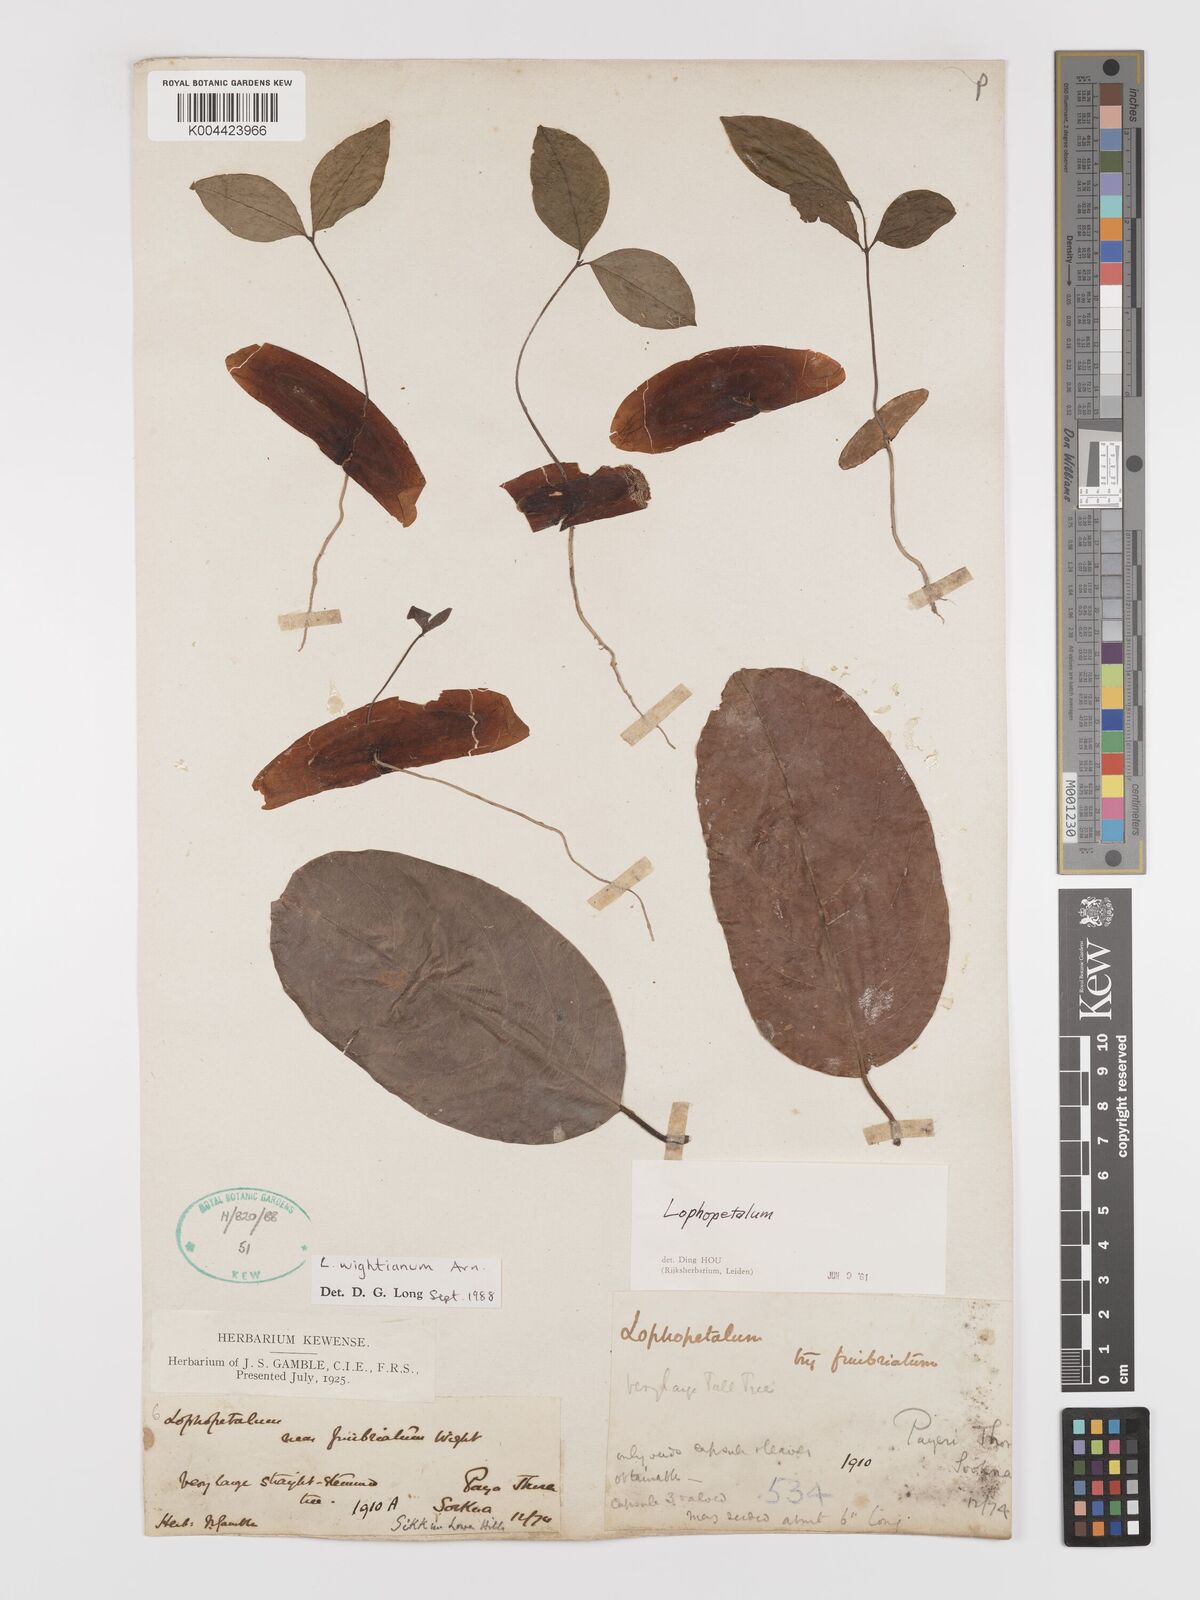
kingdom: Plantae
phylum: Tracheophyta
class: Magnoliopsida
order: Celastrales
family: Celastraceae
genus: Lophopetalum
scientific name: Lophopetalum wightianum
